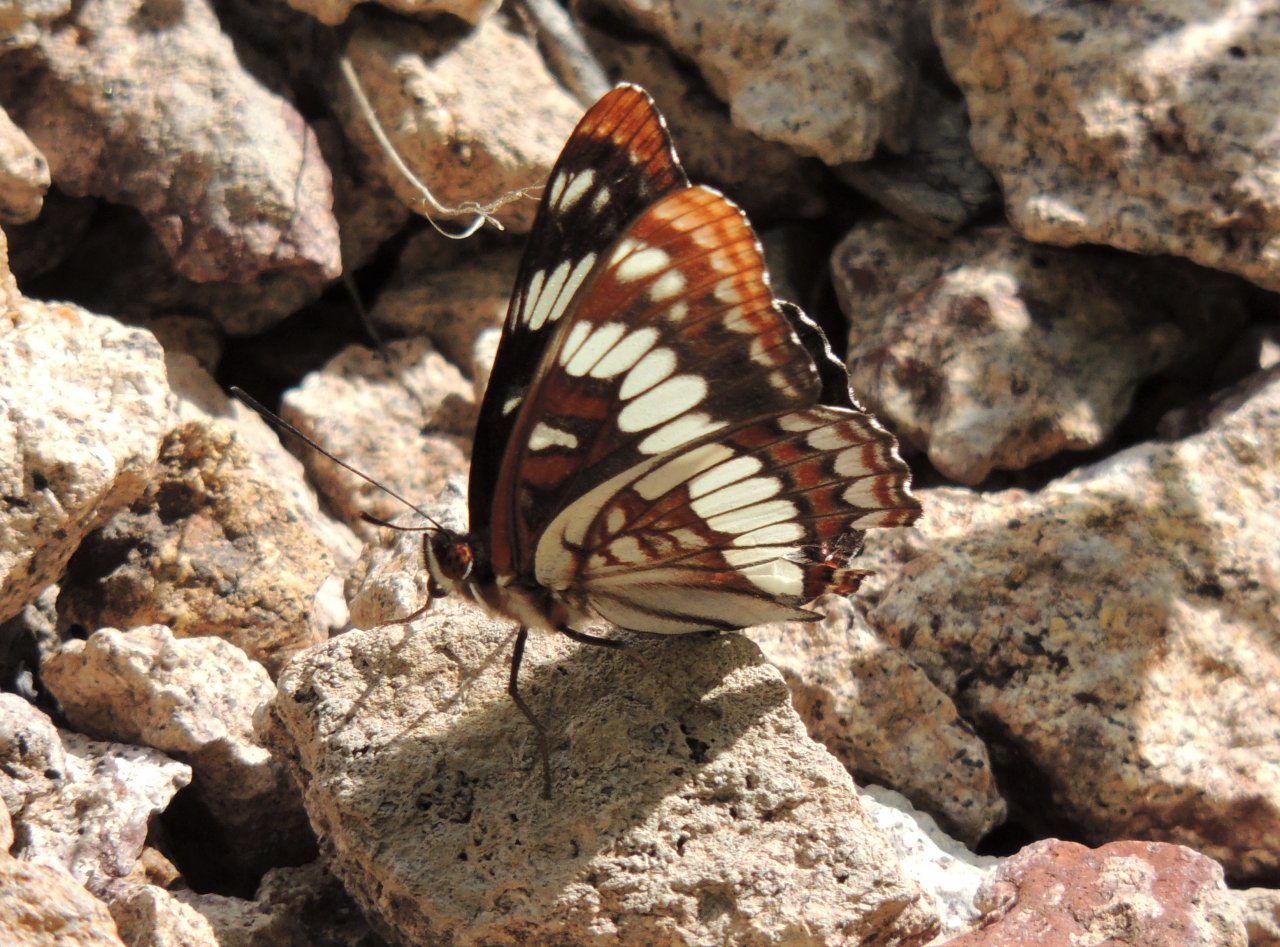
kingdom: Animalia
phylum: Arthropoda
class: Insecta
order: Lepidoptera
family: Nymphalidae
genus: Limenitis
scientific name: Limenitis lorquini
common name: Lorquin's Admiral
